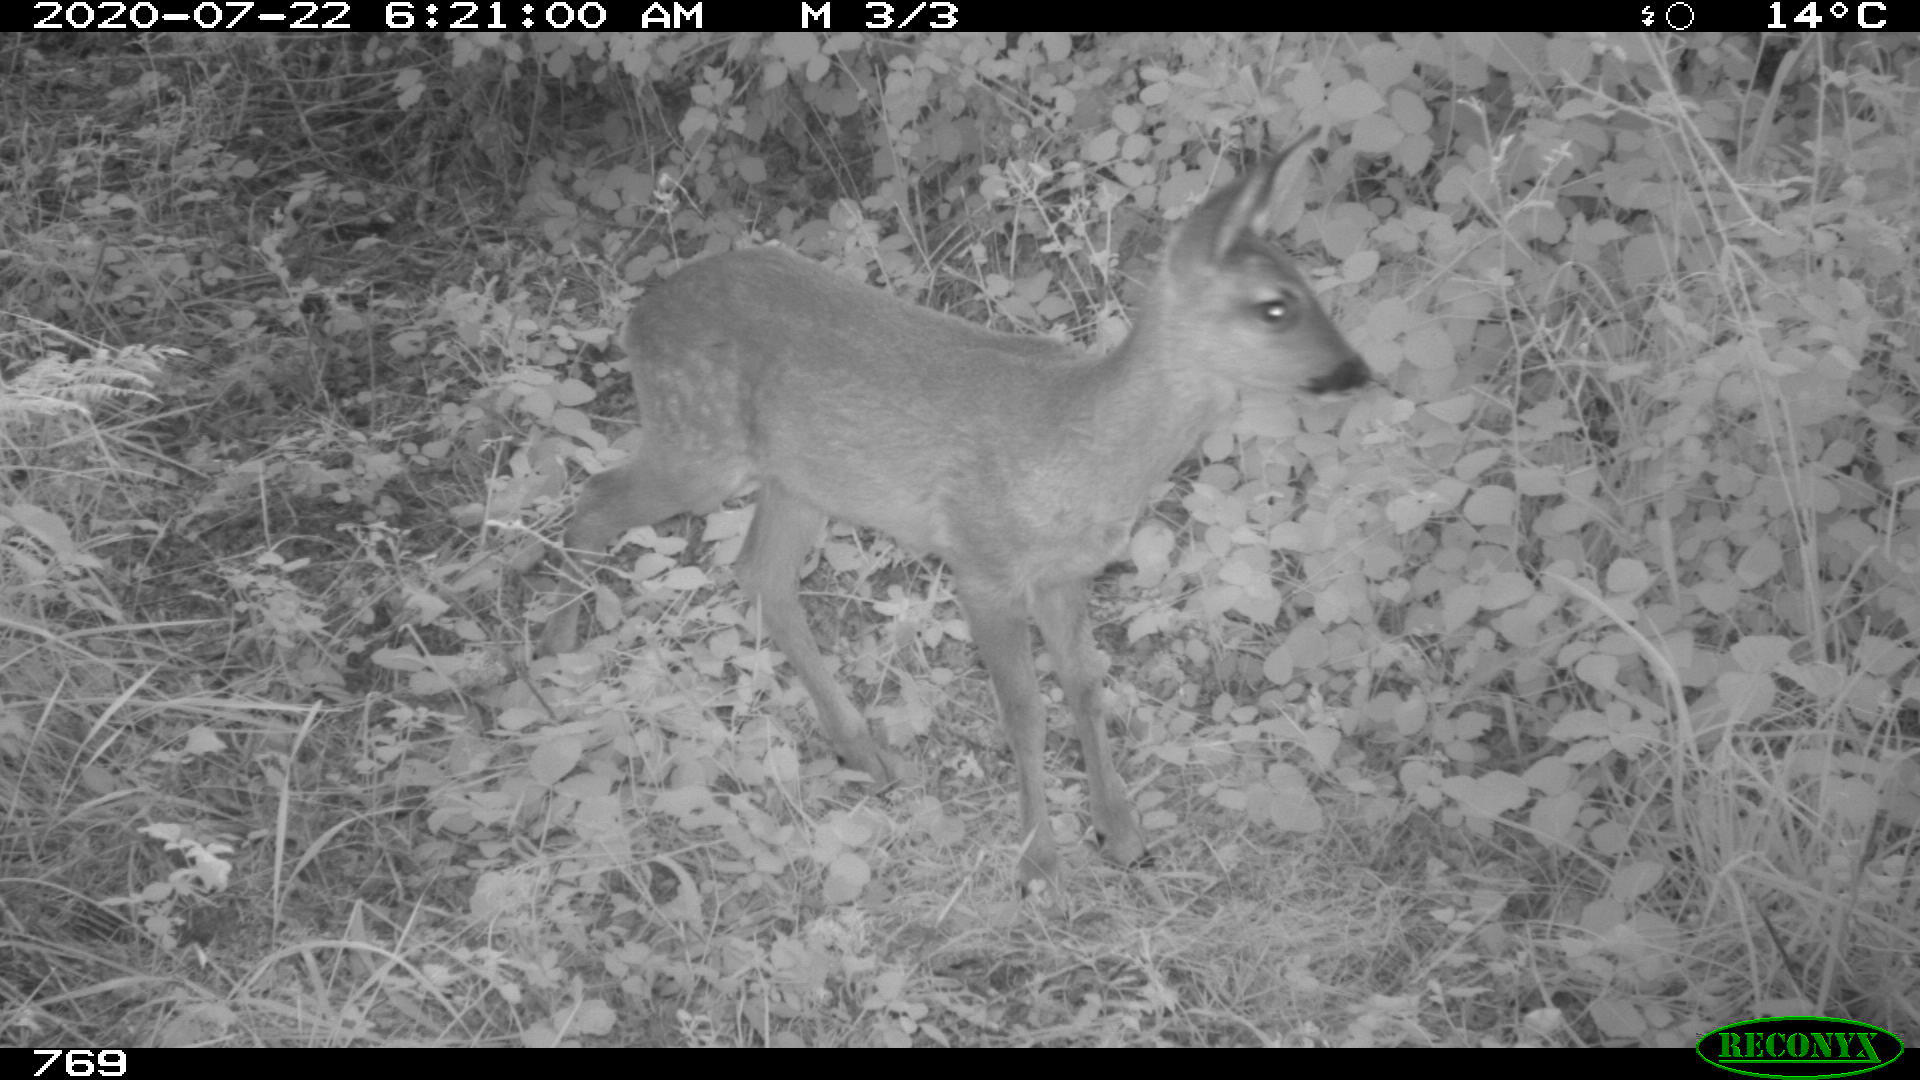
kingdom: Animalia
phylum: Chordata
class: Mammalia
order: Artiodactyla
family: Cervidae
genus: Capreolus
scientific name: Capreolus capreolus
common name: Western roe deer
